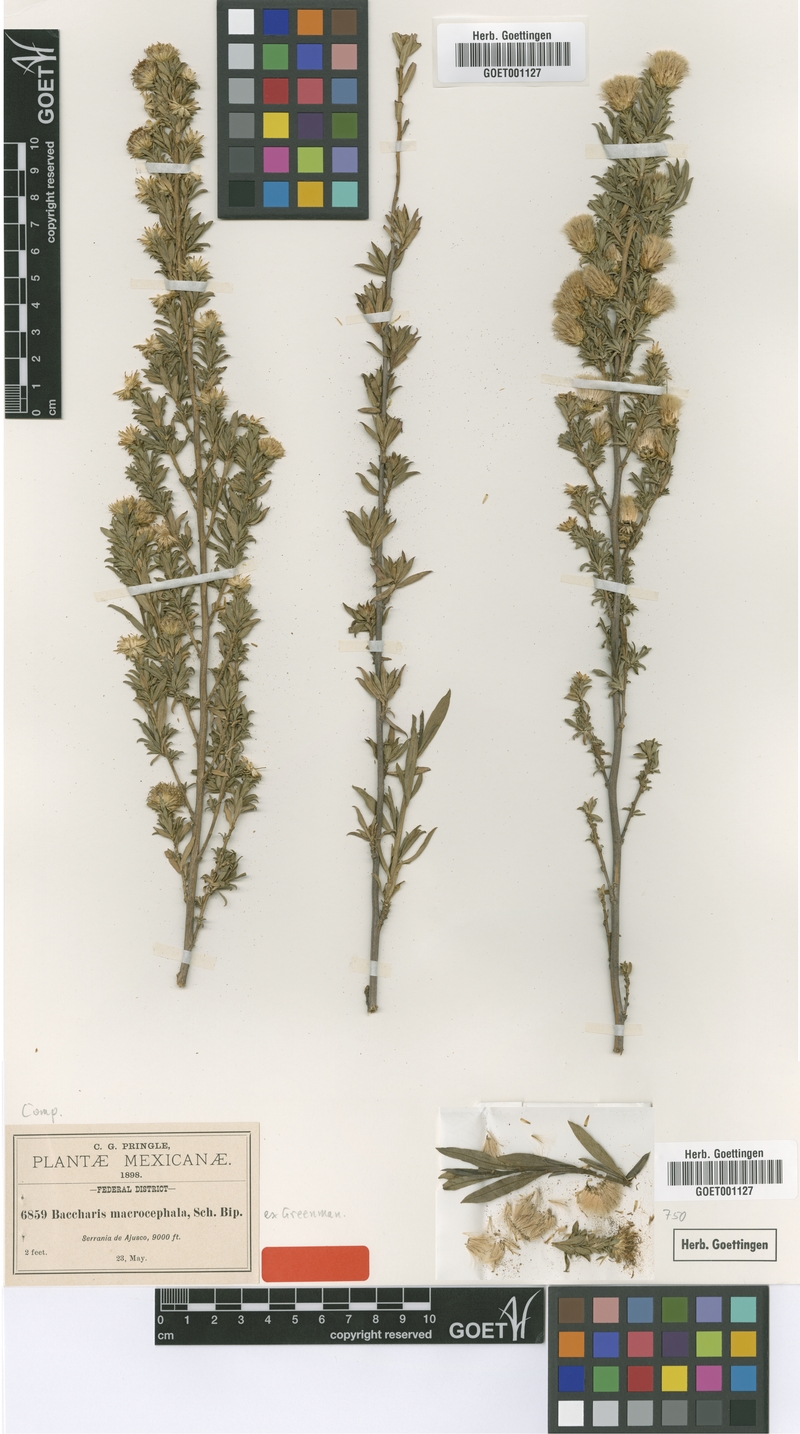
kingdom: Plantae
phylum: Tracheophyta
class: Magnoliopsida
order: Asterales
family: Asteraceae
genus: Baccharis
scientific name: Baccharis macrocephala
